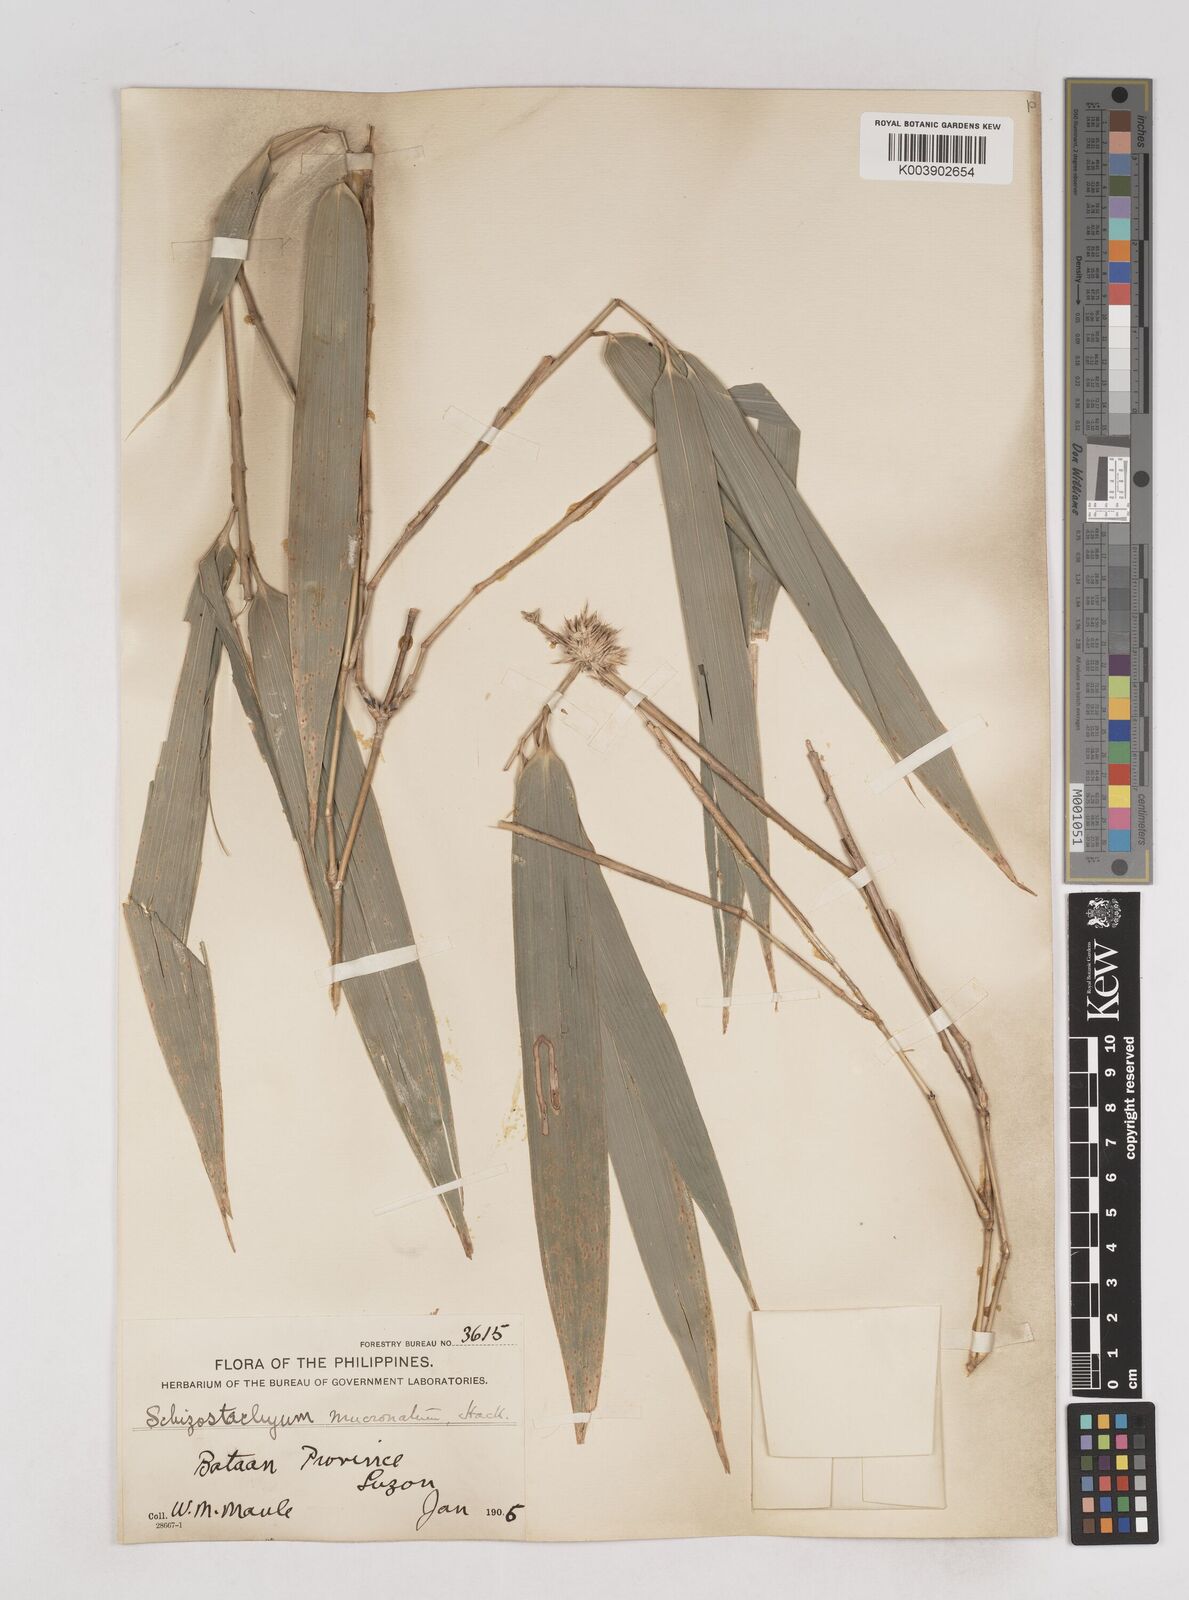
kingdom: Plantae
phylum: Tracheophyta
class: Liliopsida
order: Poales
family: Poaceae
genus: Schizostachyum
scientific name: Schizostachyum lumampao
